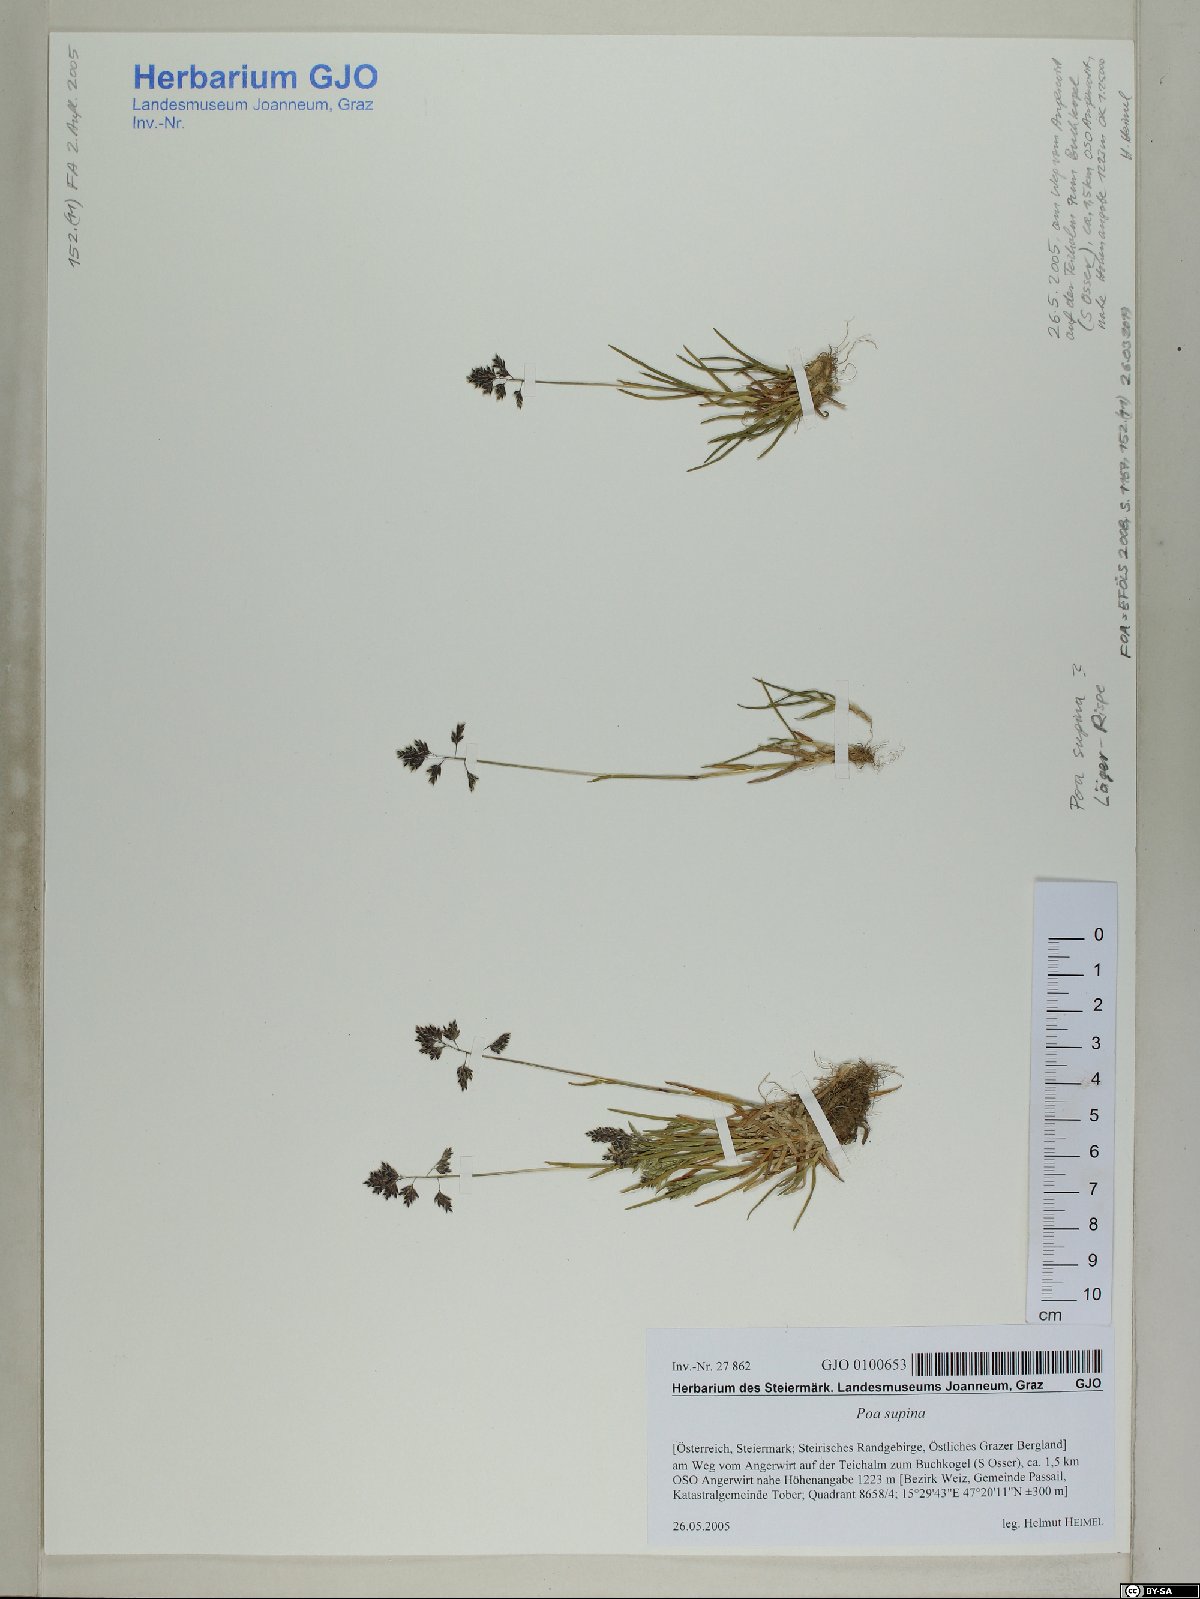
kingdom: Plantae
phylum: Tracheophyta
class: Liliopsida
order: Poales
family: Poaceae
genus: Poa
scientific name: Poa supina
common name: Supina bluegrass
